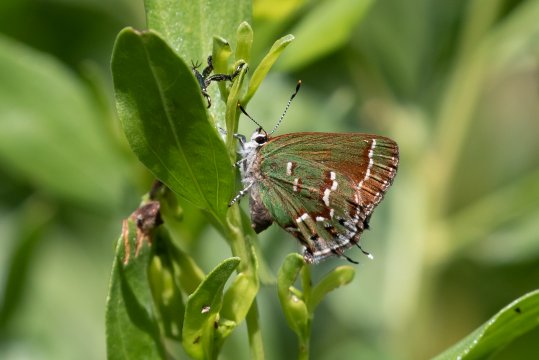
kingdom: Animalia
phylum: Arthropoda
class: Insecta
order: Lepidoptera
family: Lycaenidae
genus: Mitoura
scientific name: Mitoura gryneus
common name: Juniper Hairstreak
